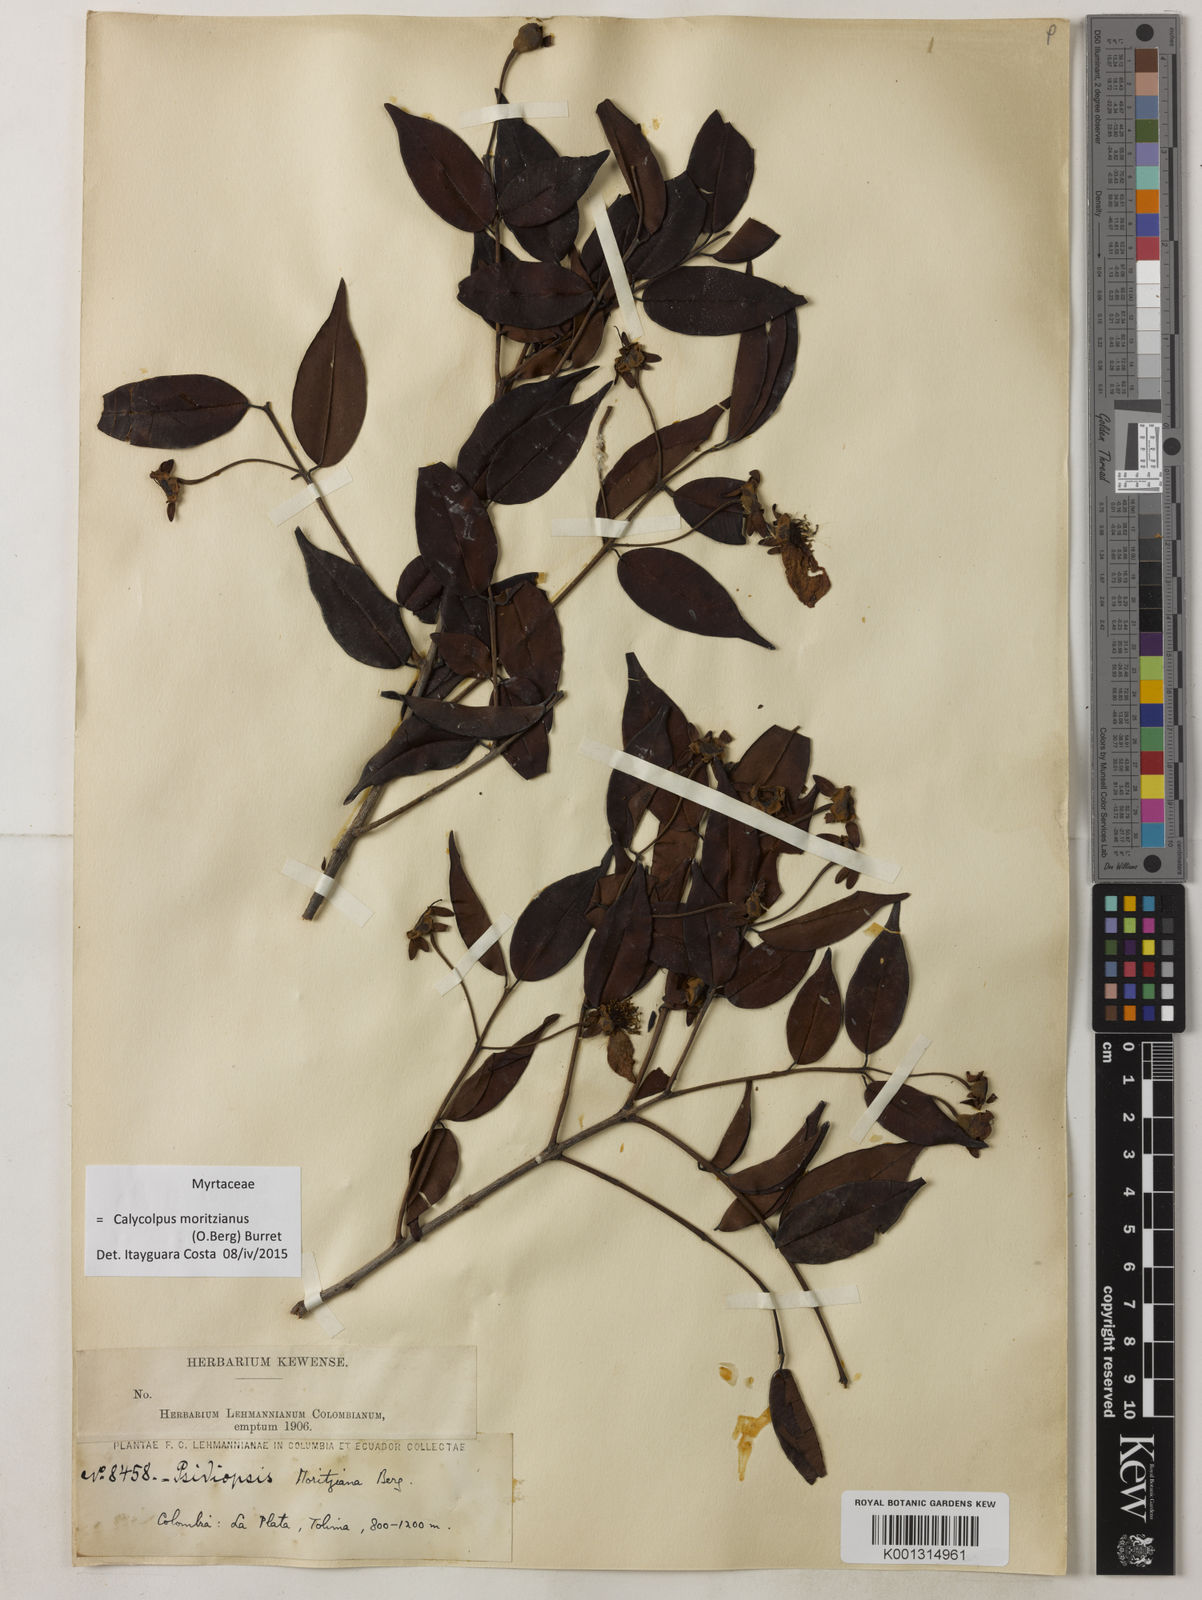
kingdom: Plantae
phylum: Tracheophyta
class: Magnoliopsida
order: Myrtales
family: Myrtaceae
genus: Calycolpus
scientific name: Calycolpus moritzianus
